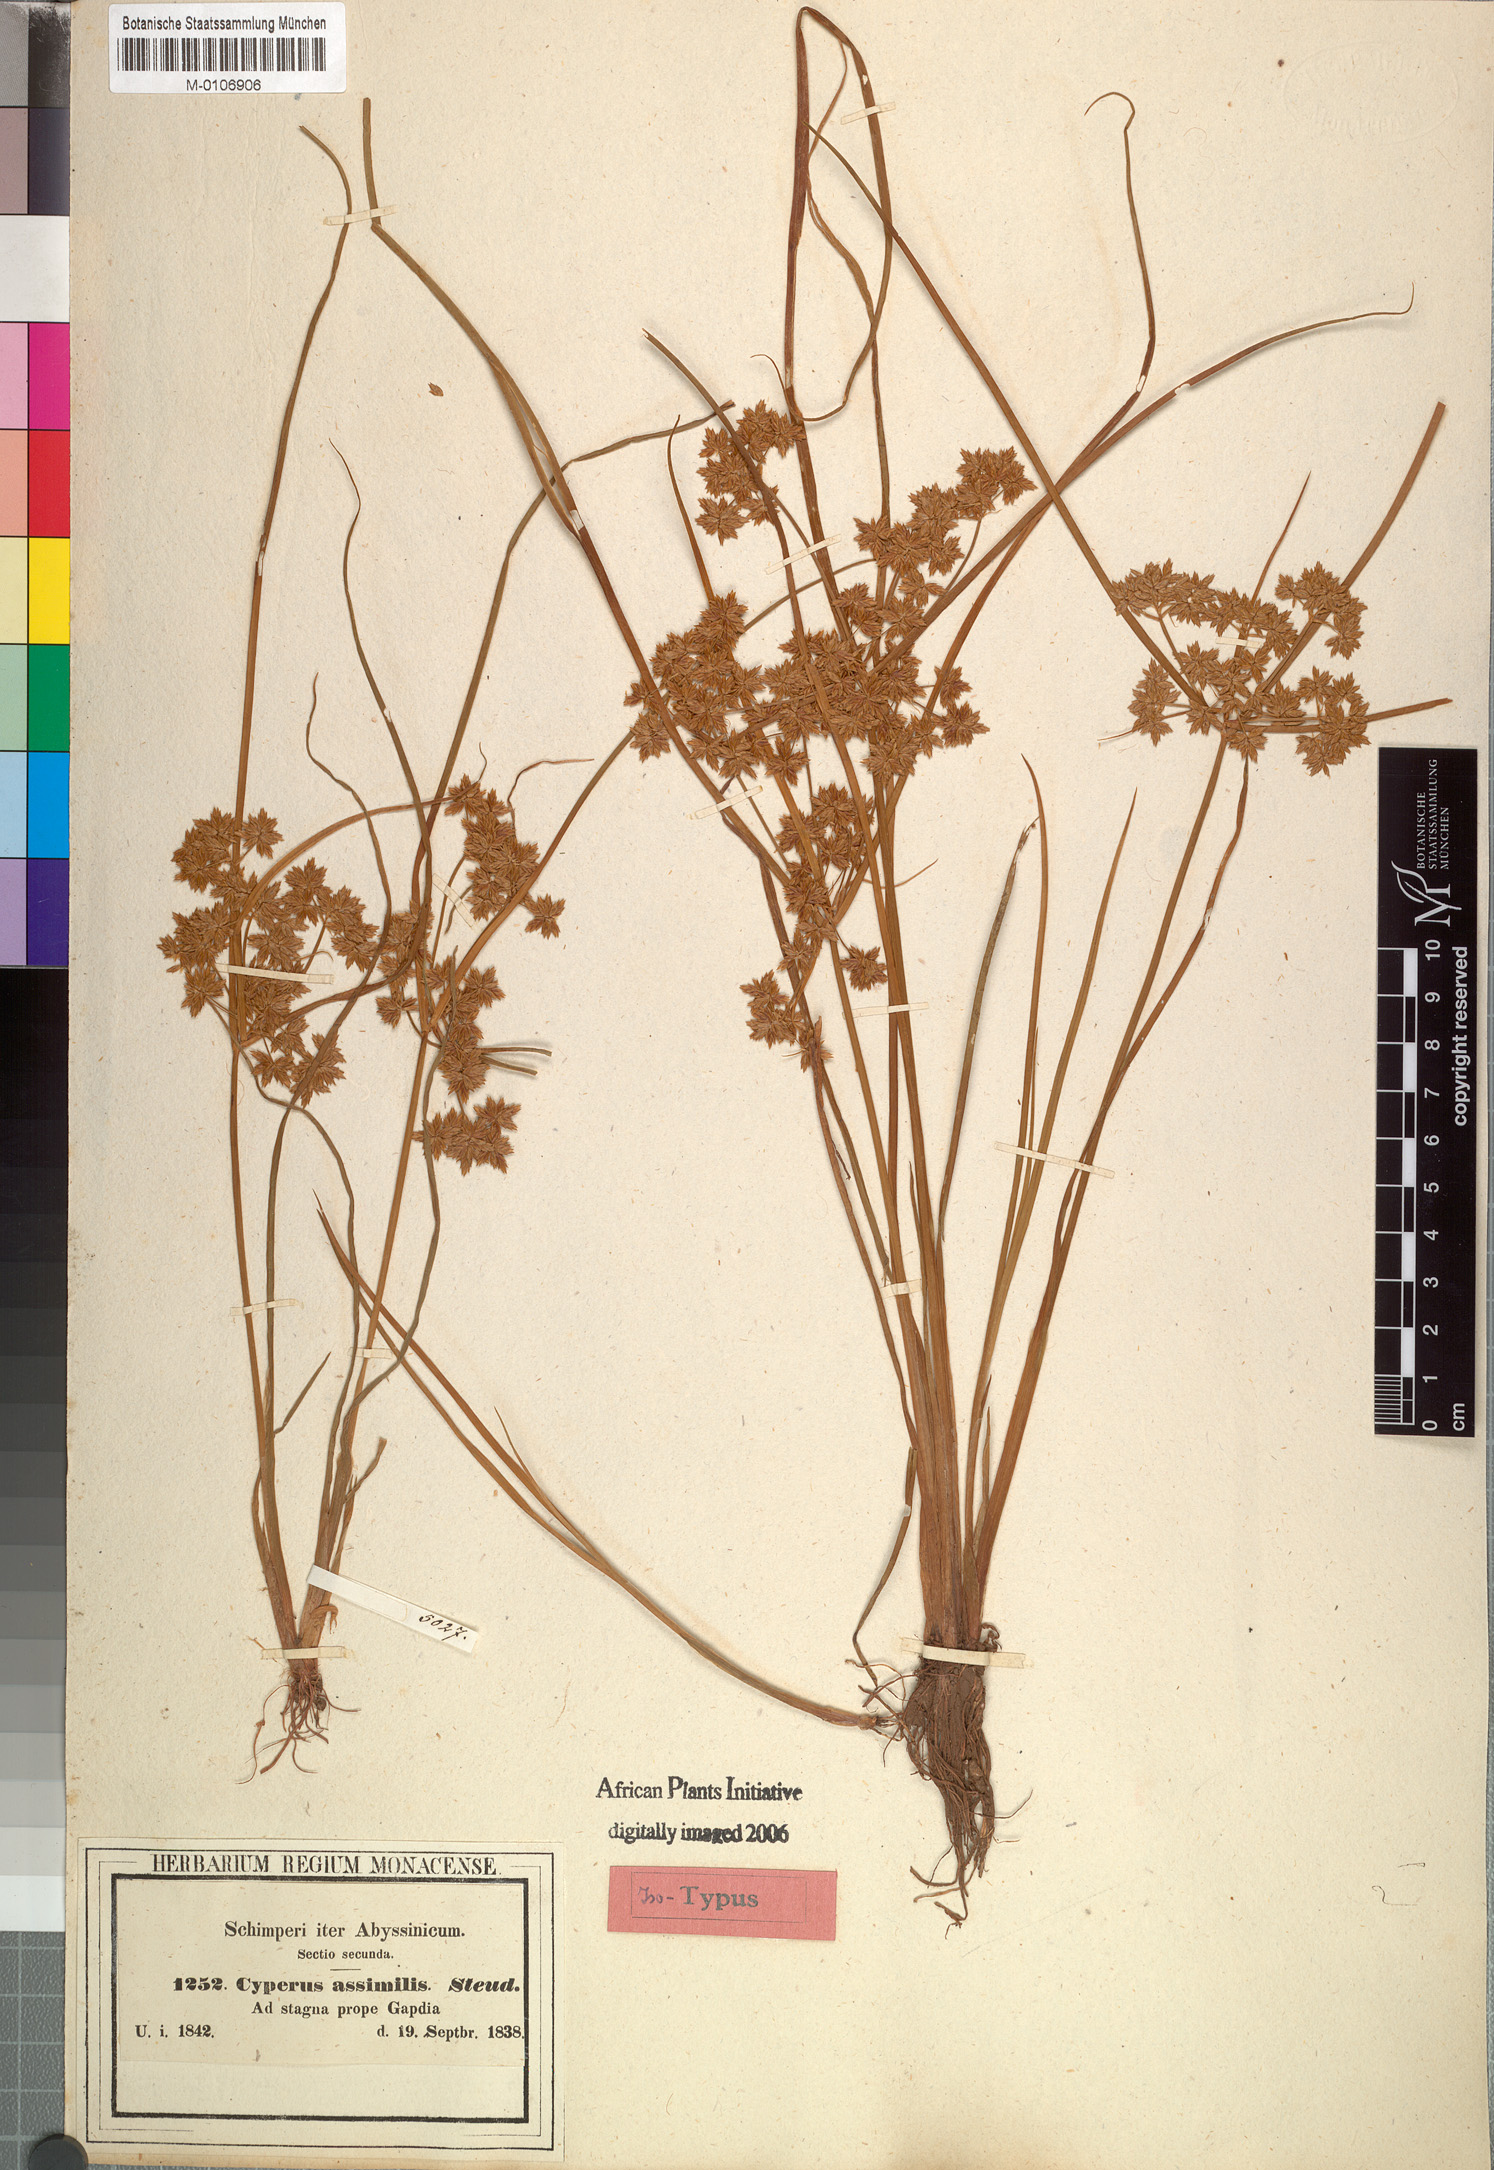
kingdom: Plantae
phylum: Tracheophyta
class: Liliopsida
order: Poales
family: Cyperaceae
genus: Cyperus
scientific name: Cyperus assimilis
